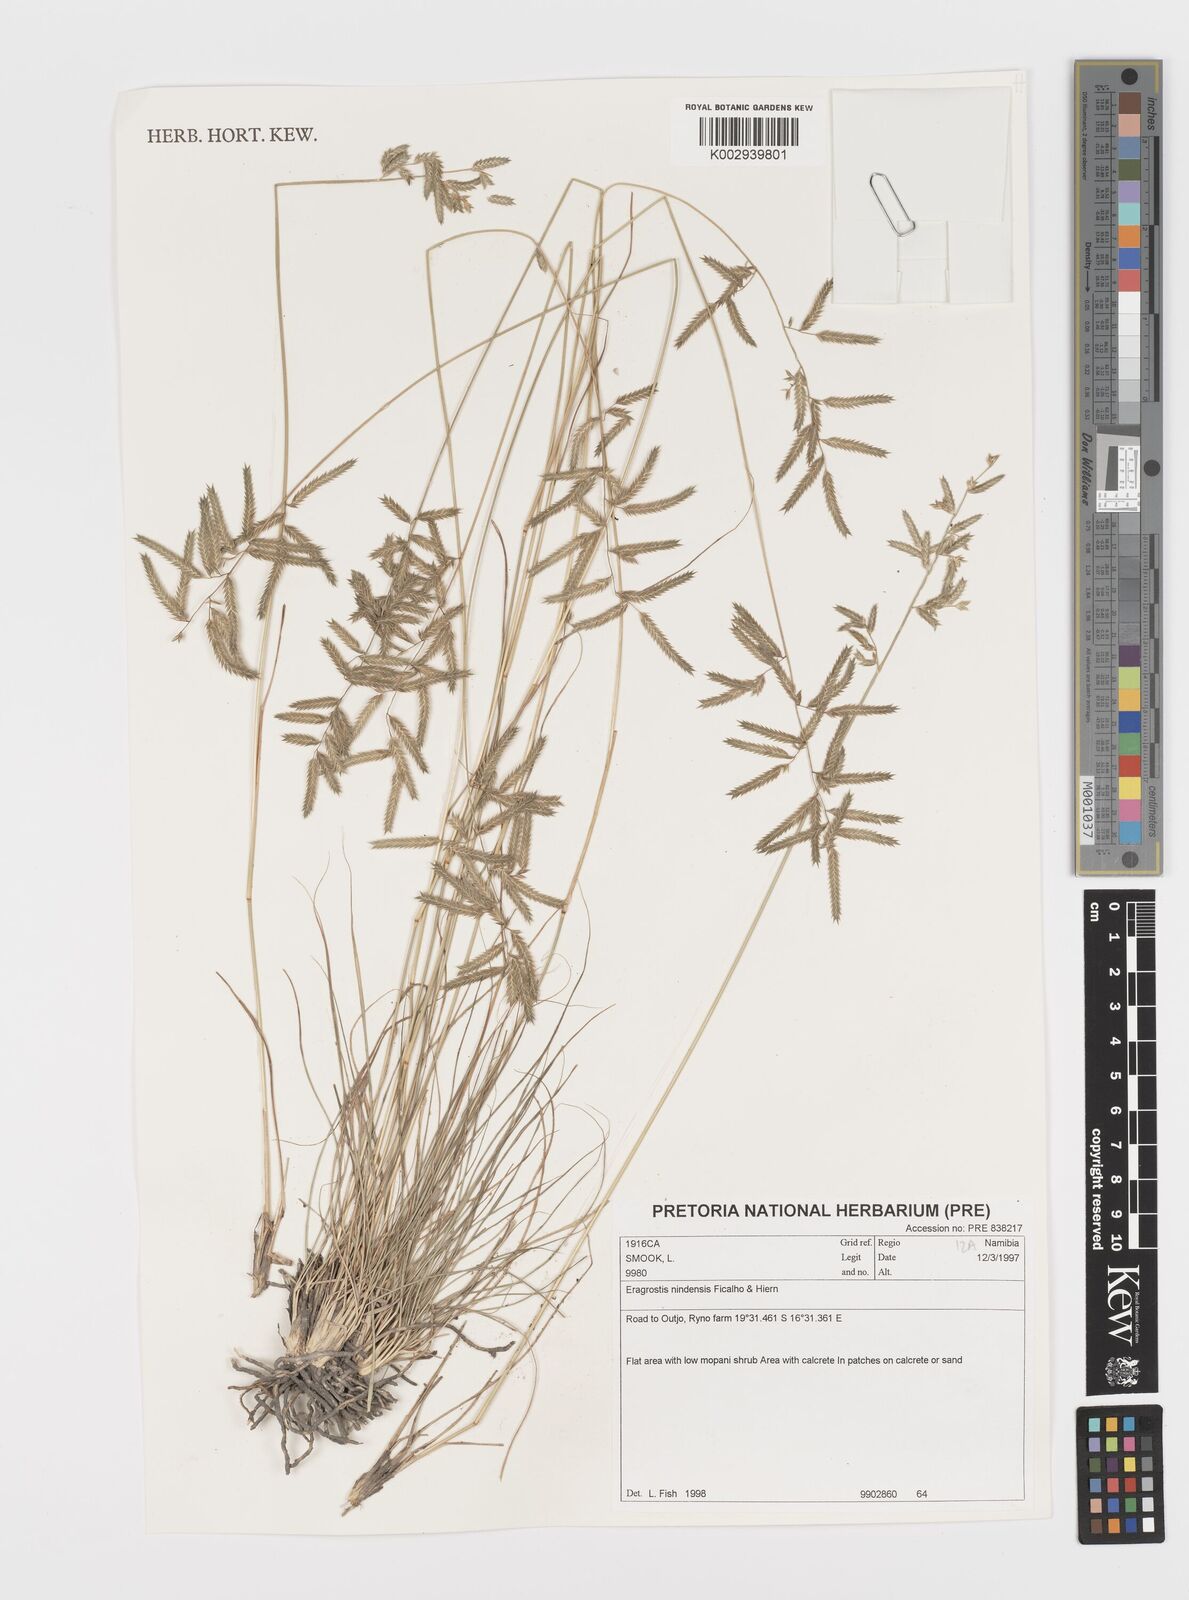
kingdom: Plantae
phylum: Tracheophyta
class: Liliopsida
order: Poales
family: Poaceae
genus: Eragrostis
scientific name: Eragrostis nindensis
